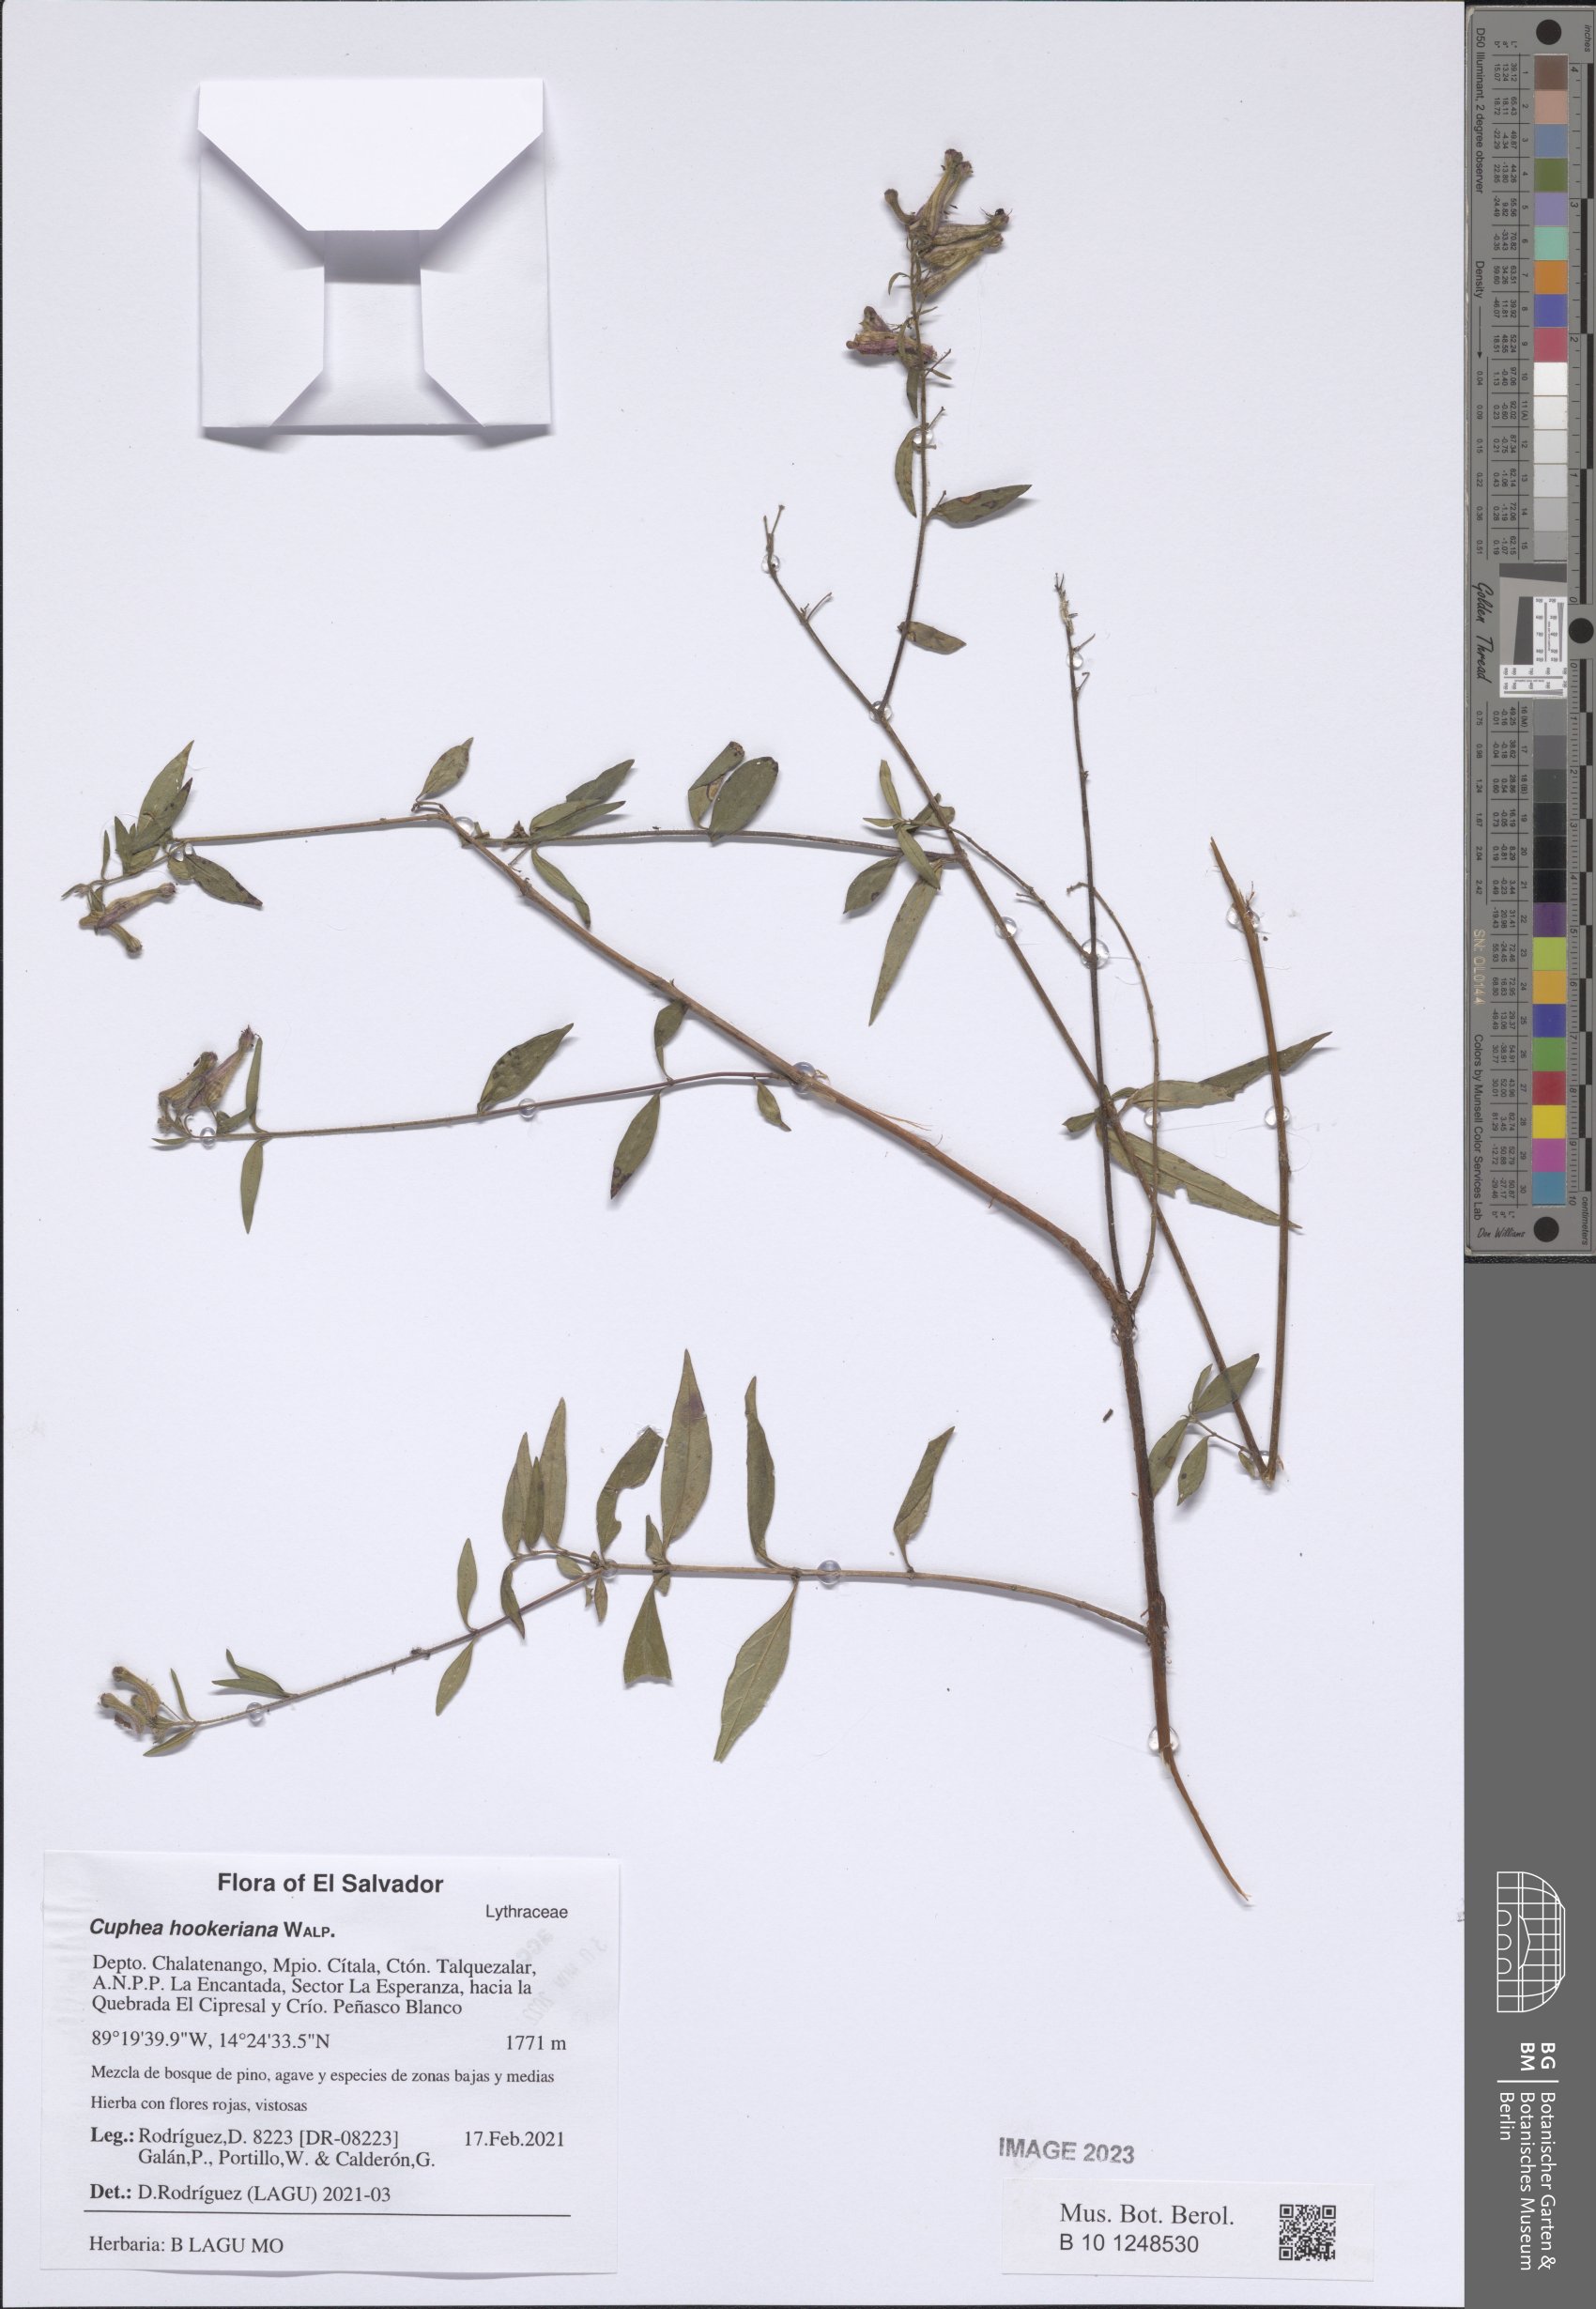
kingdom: Plantae
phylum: Tracheophyta
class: Magnoliopsida
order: Myrtales
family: Lythraceae
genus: Cuphea
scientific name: Cuphea hookeriana
